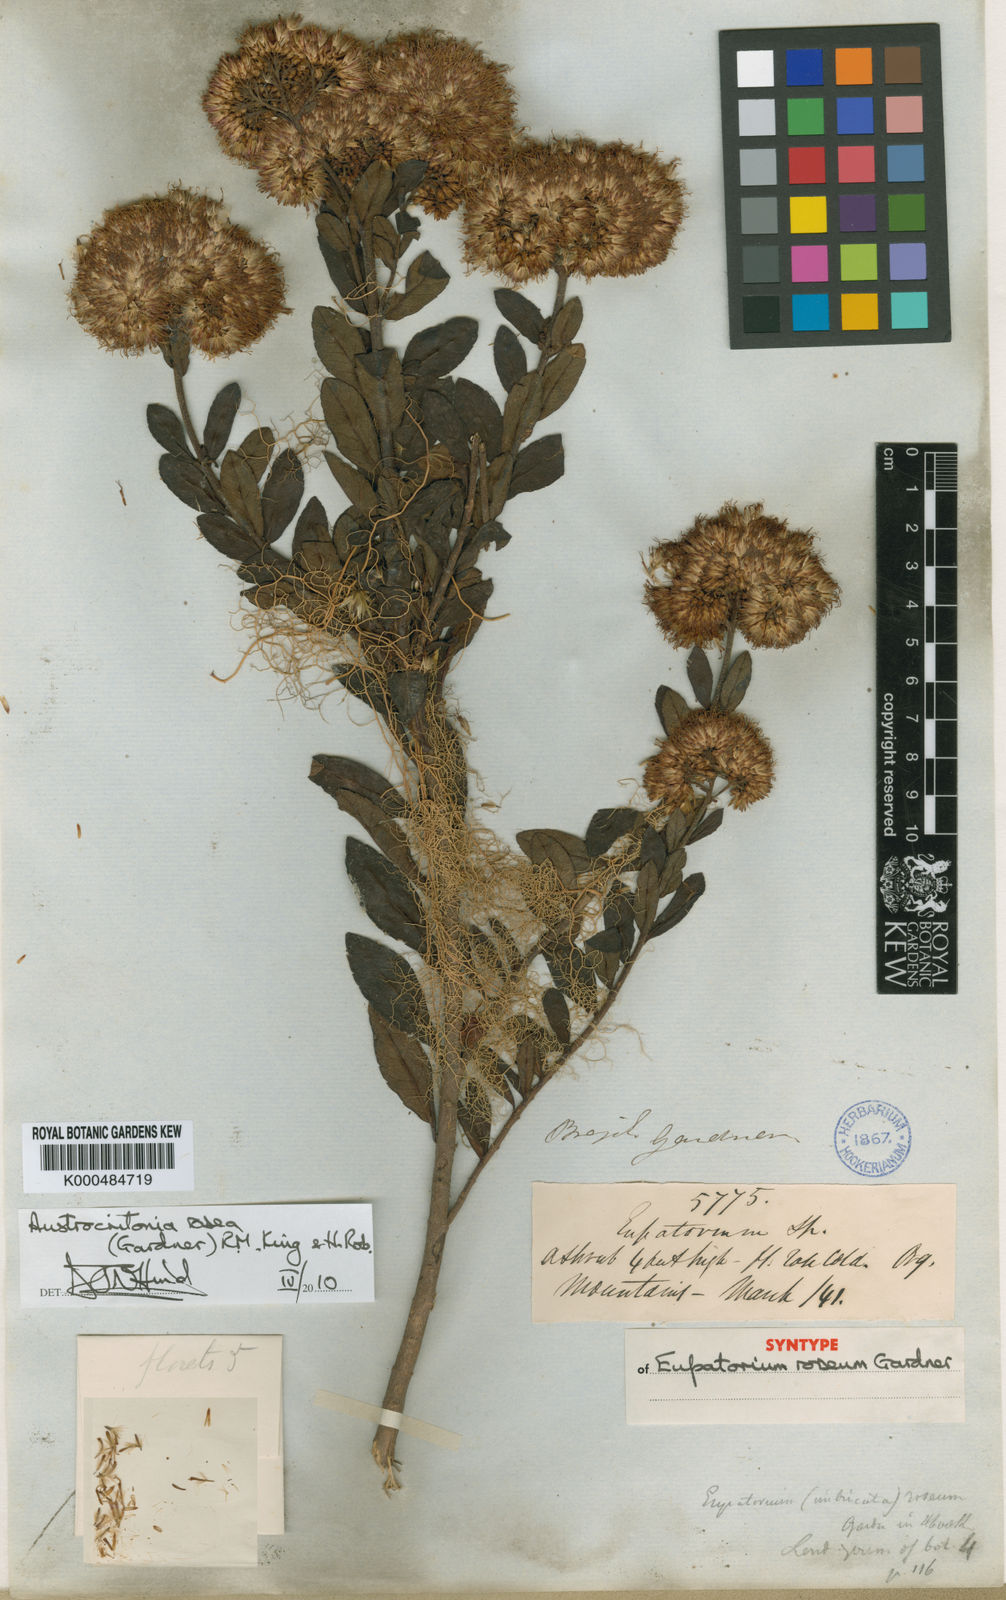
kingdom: Plantae
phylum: Tracheophyta
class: Magnoliopsida
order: Asterales
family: Asteraceae
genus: Austrocritonia
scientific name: Austrocritonia rosea
